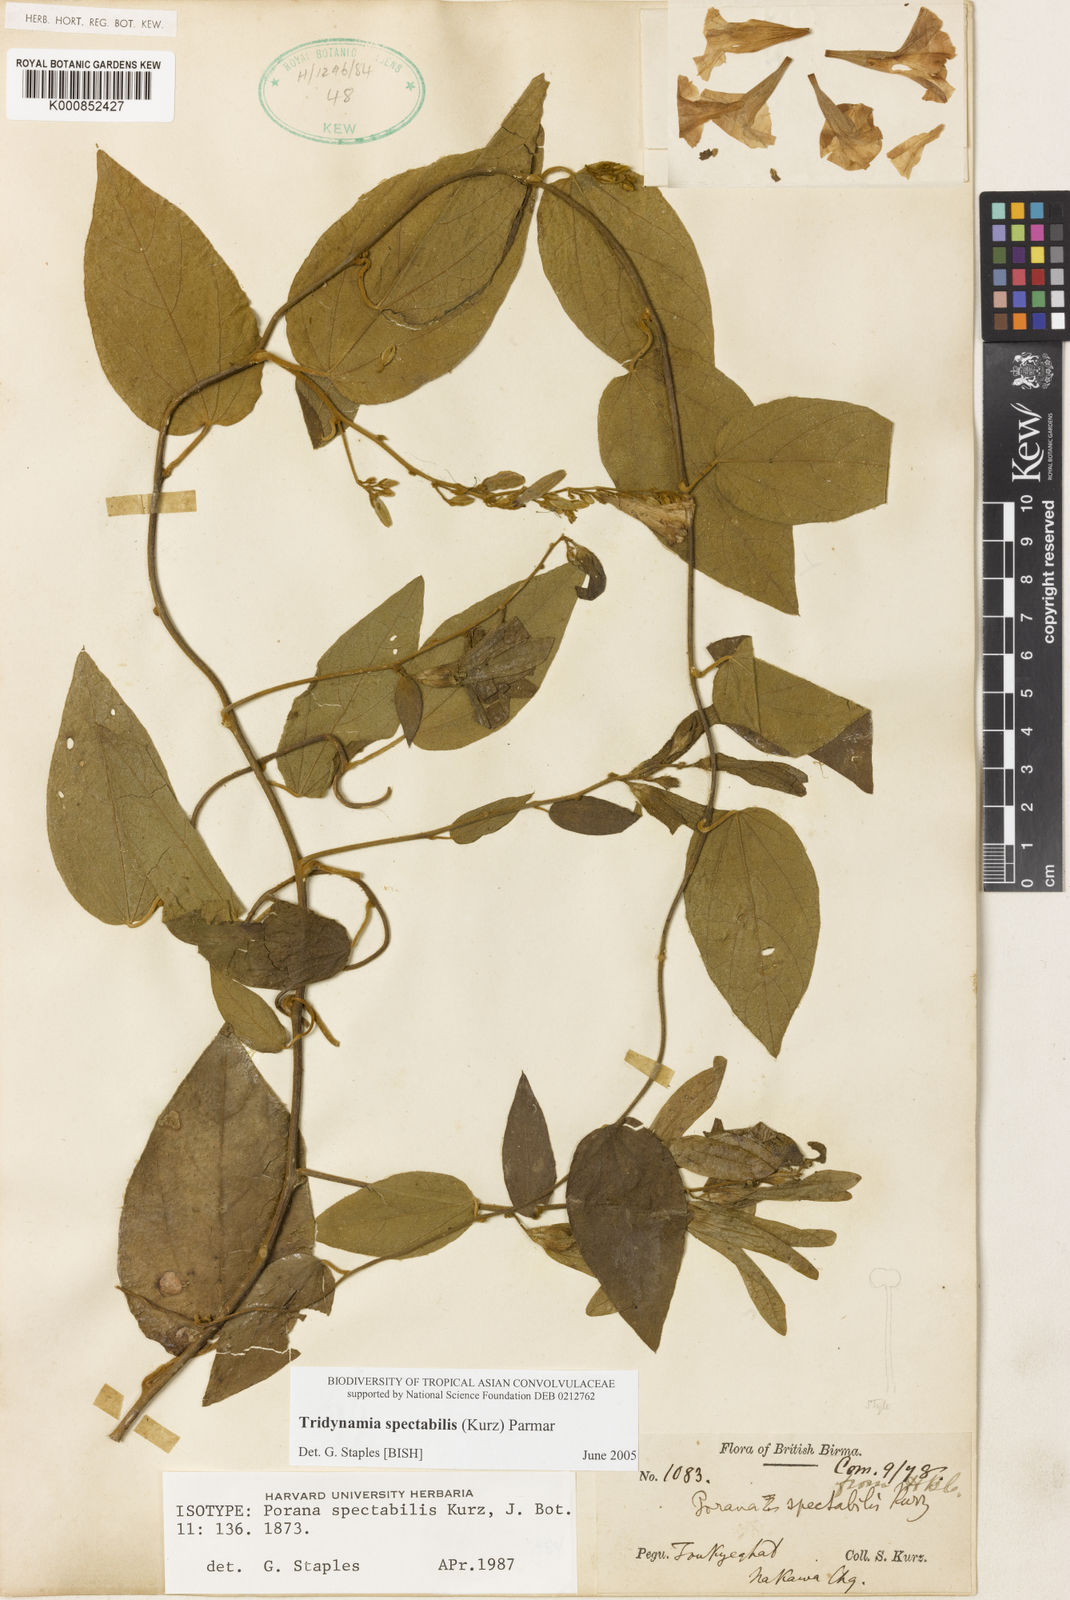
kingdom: Plantae
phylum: Tracheophyta
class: Magnoliopsida
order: Solanales
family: Convolvulaceae
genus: Tridynamia
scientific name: Tridynamia spectabilis
